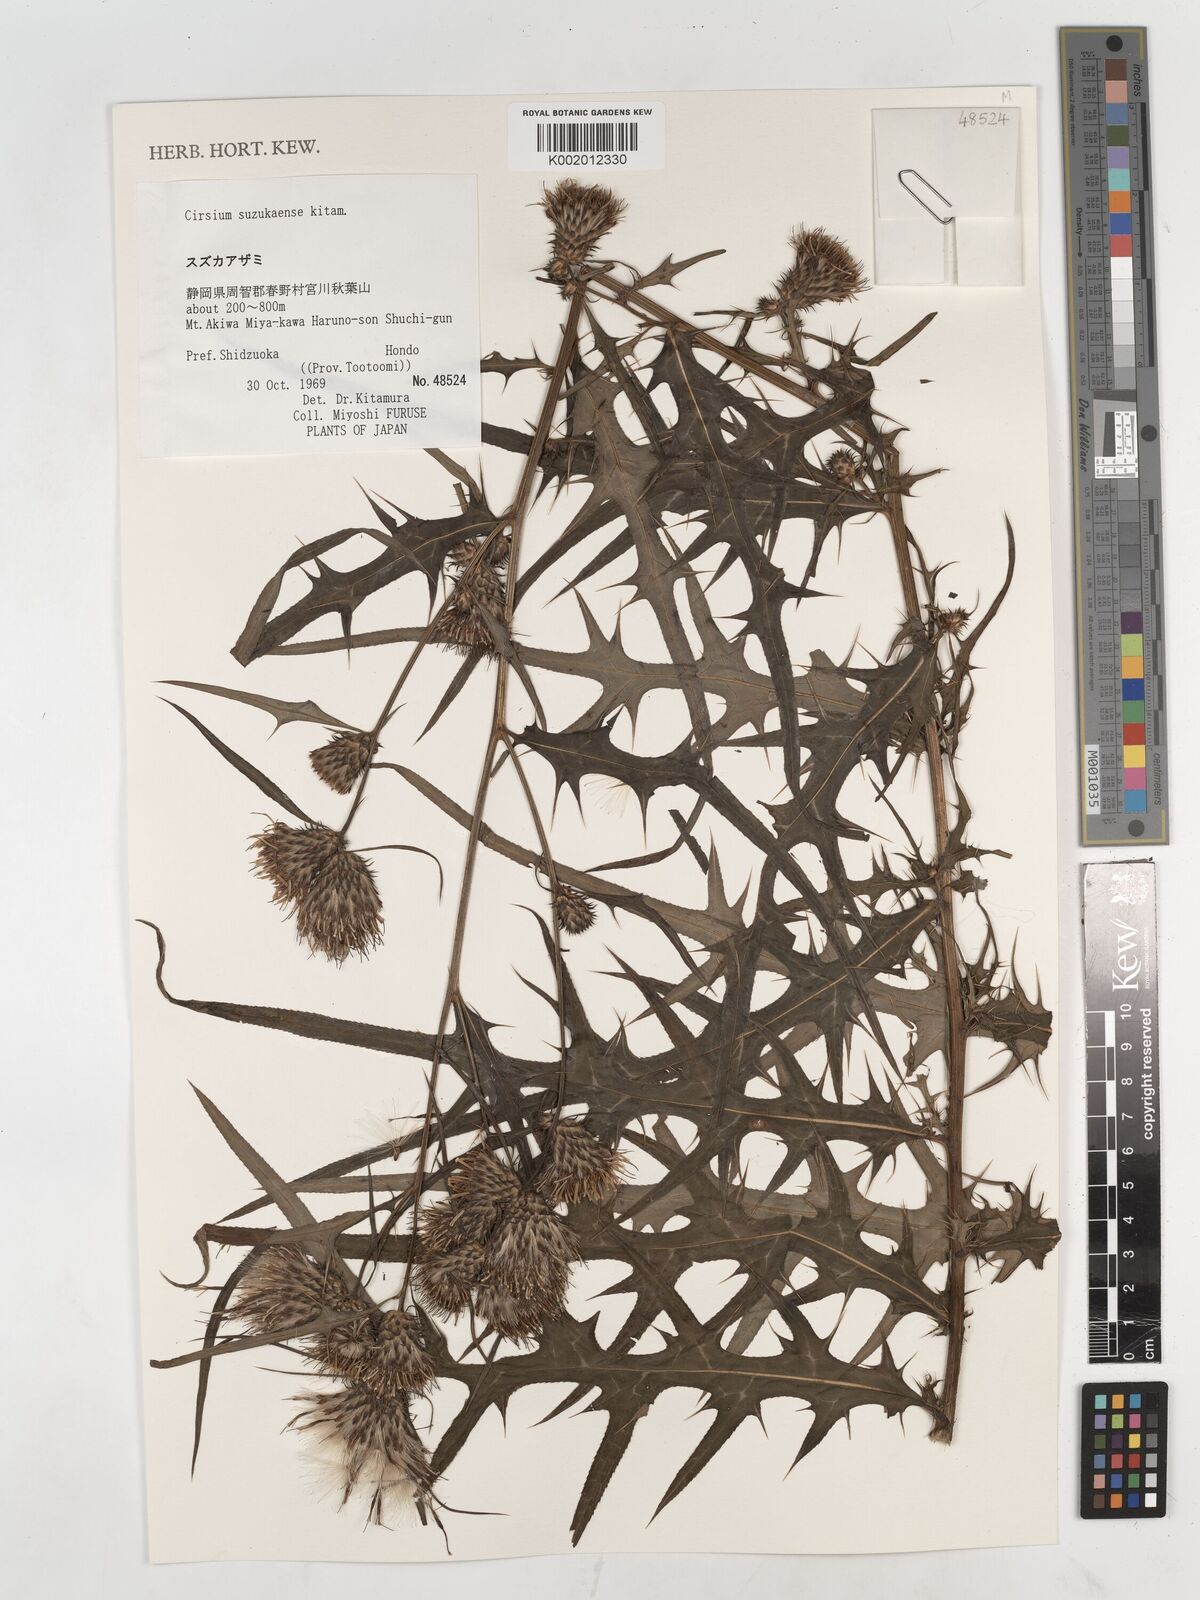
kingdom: Plantae
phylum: Tracheophyta
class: Magnoliopsida
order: Asterales
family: Asteraceae
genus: Cirsium
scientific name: Cirsium suzukaense
